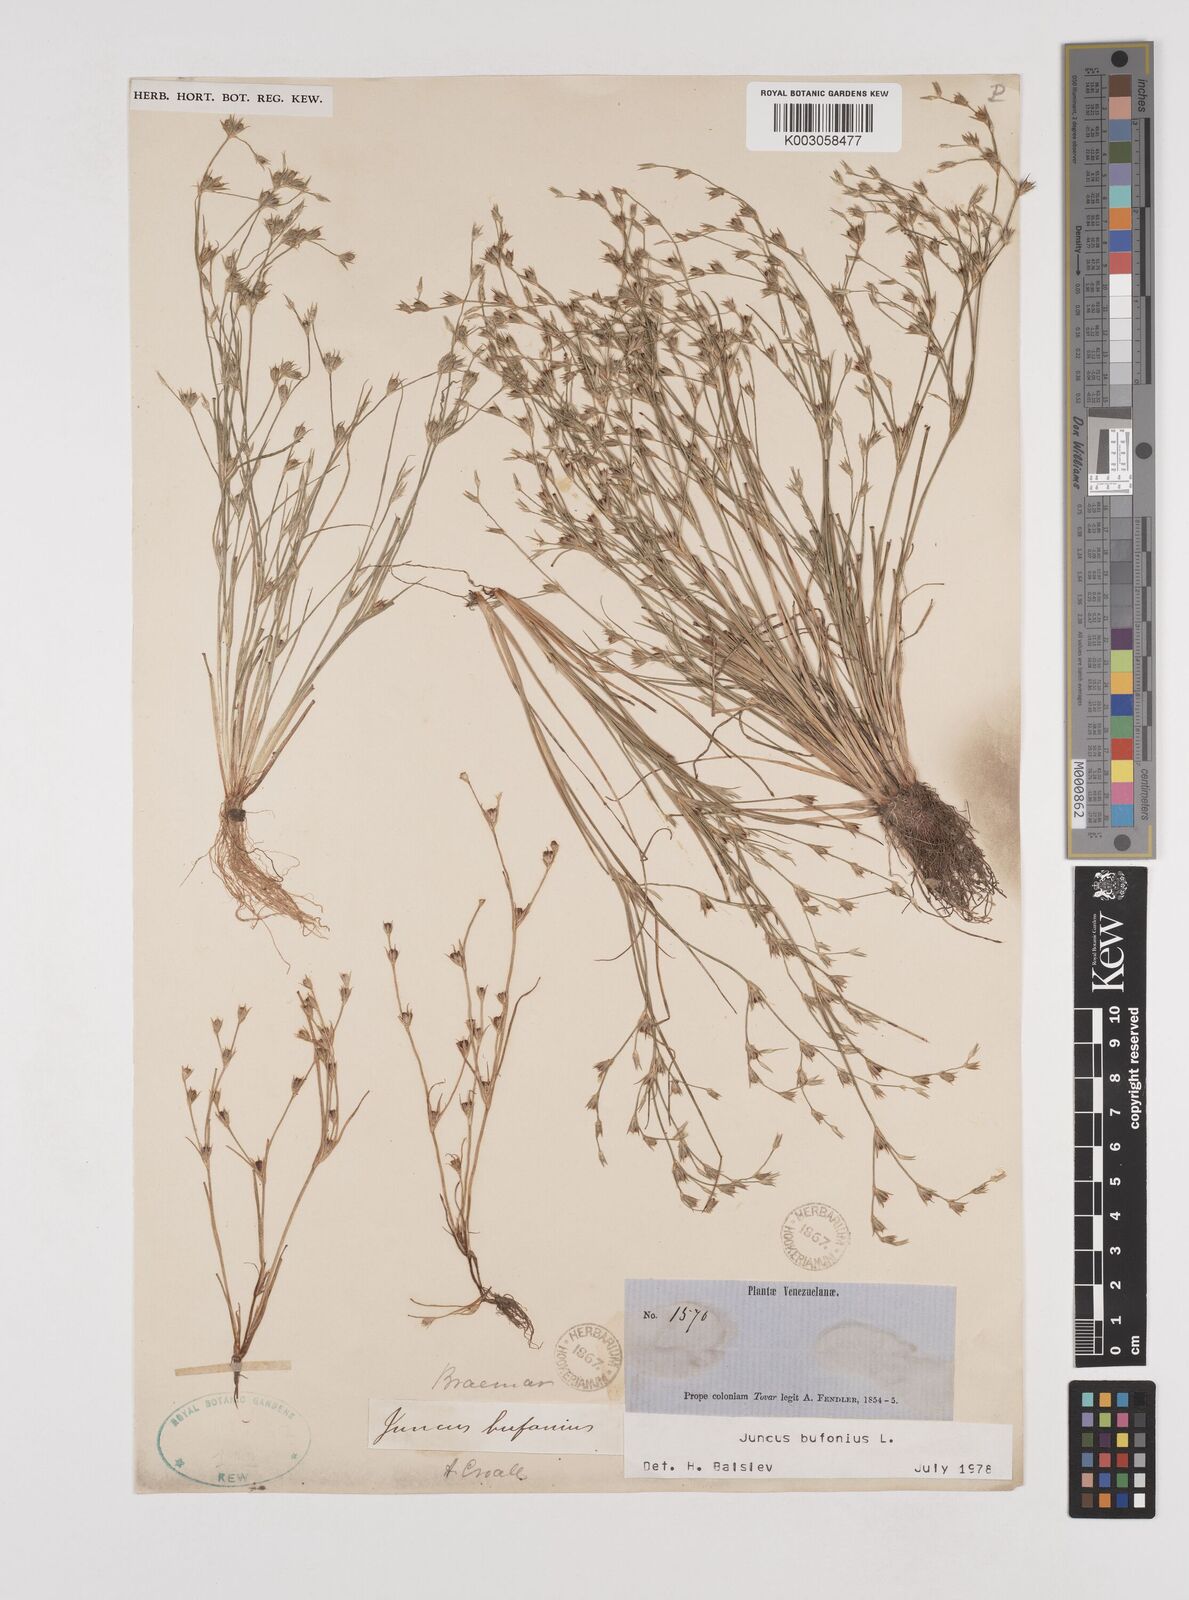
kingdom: Plantae
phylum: Tracheophyta
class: Liliopsida
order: Poales
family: Juncaceae
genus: Juncus
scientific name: Juncus bufonius
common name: Toad rush
